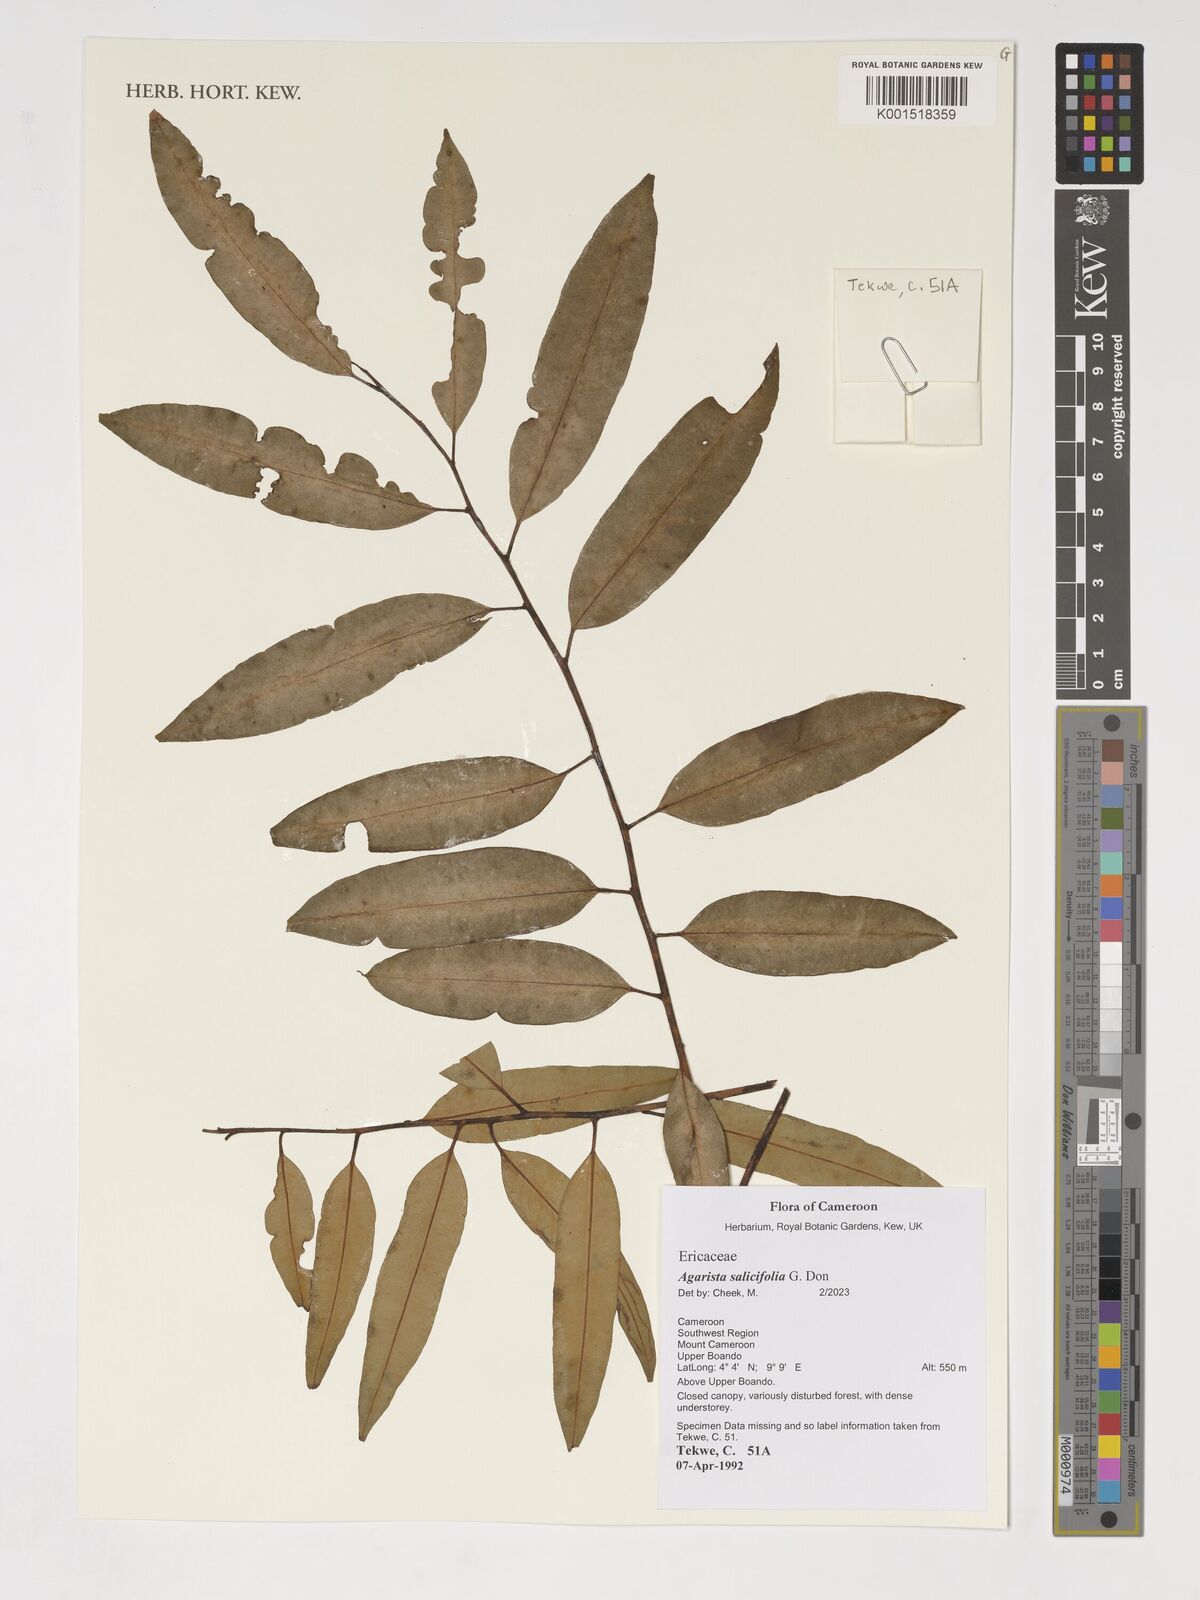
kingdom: Plantae
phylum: Tracheophyta
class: Magnoliopsida
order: Ericales
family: Ericaceae
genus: Agarista
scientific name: Agarista salicifolia
